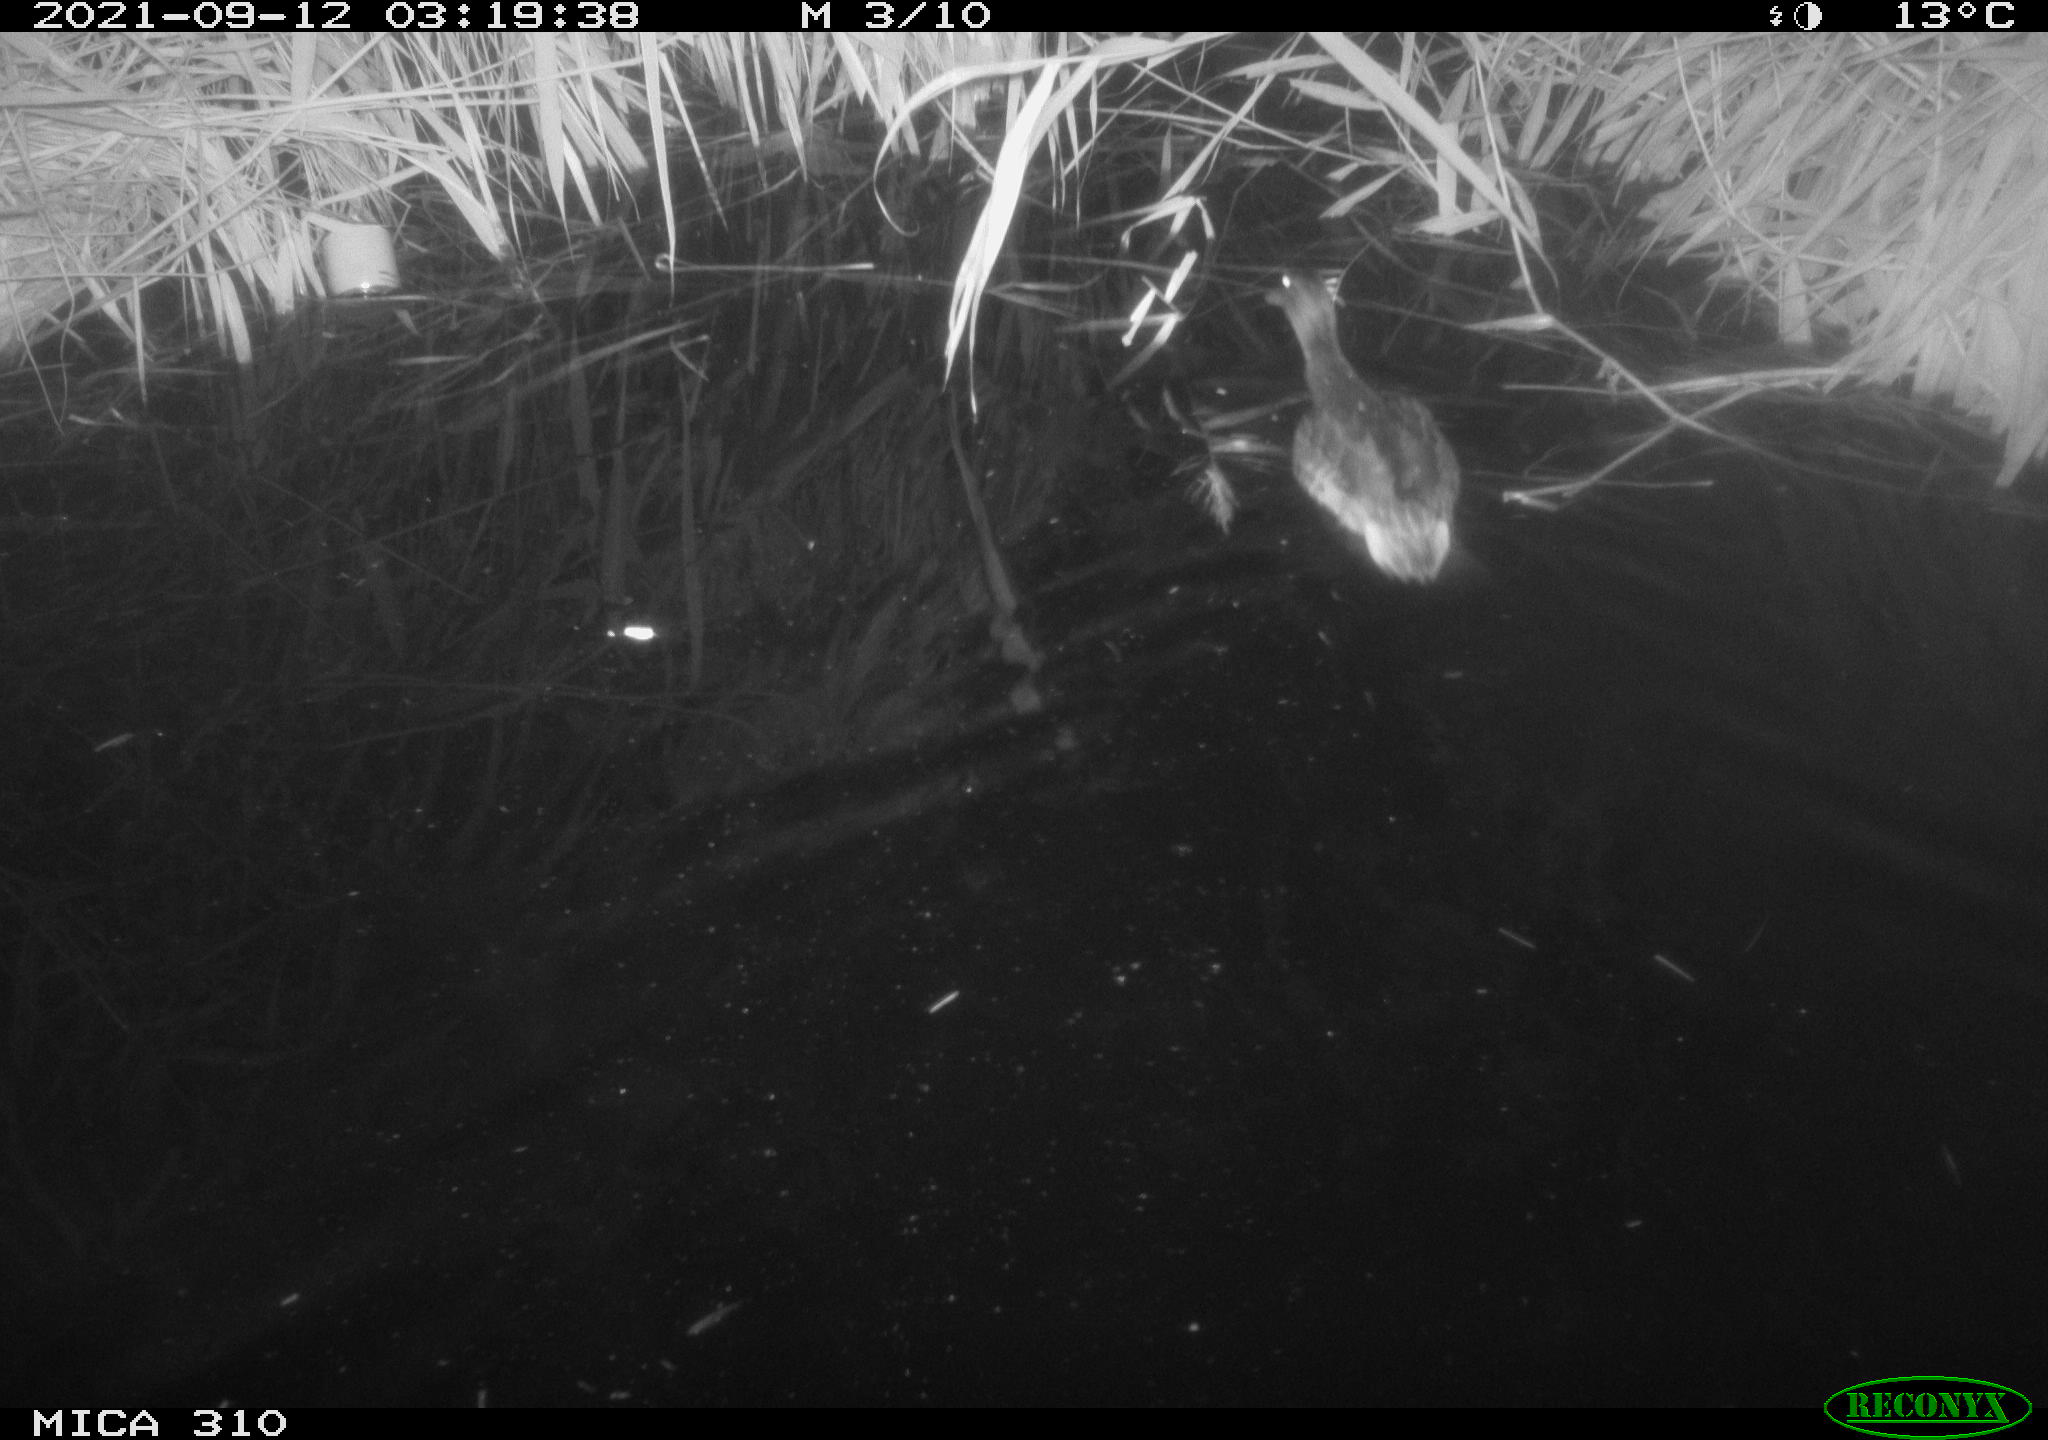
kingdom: Animalia
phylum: Chordata
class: Aves
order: Anseriformes
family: Anatidae
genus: Mareca
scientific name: Mareca strepera
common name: Gadwall
